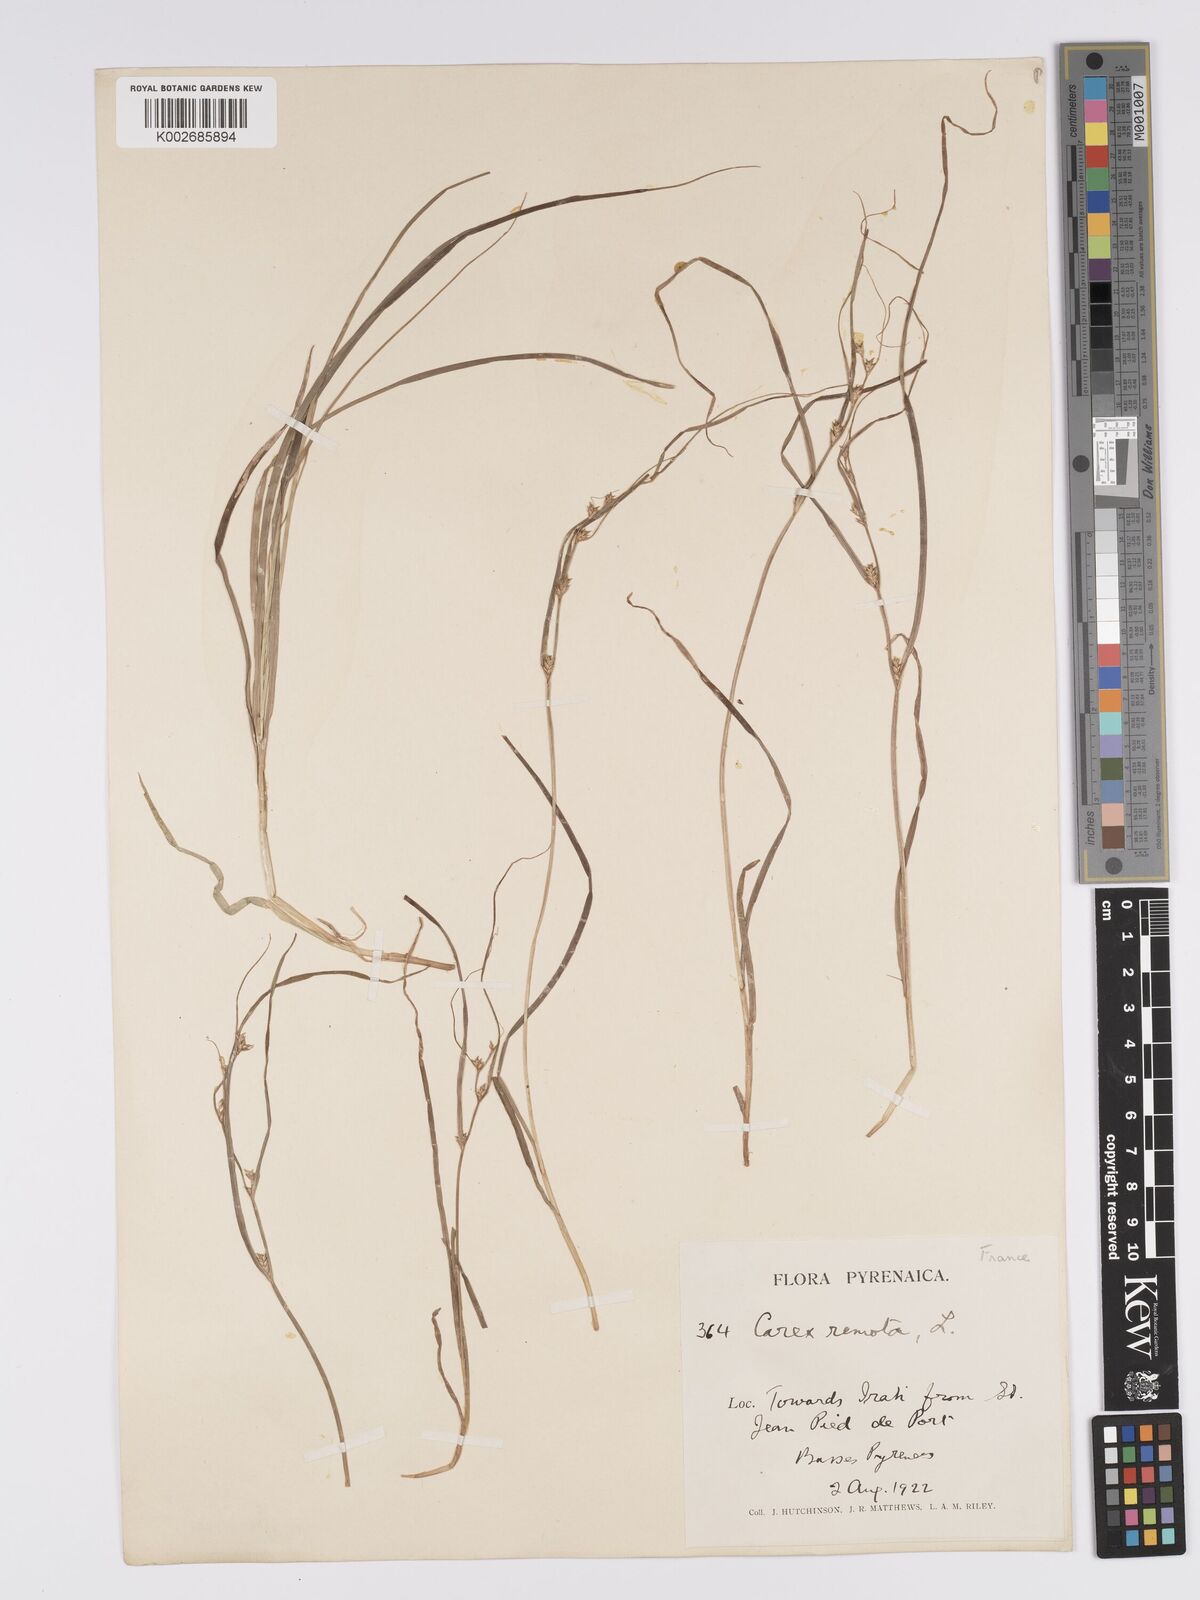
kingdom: Plantae
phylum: Tracheophyta
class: Liliopsida
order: Poales
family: Cyperaceae
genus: Carex
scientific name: Carex remota
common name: Remote sedge
